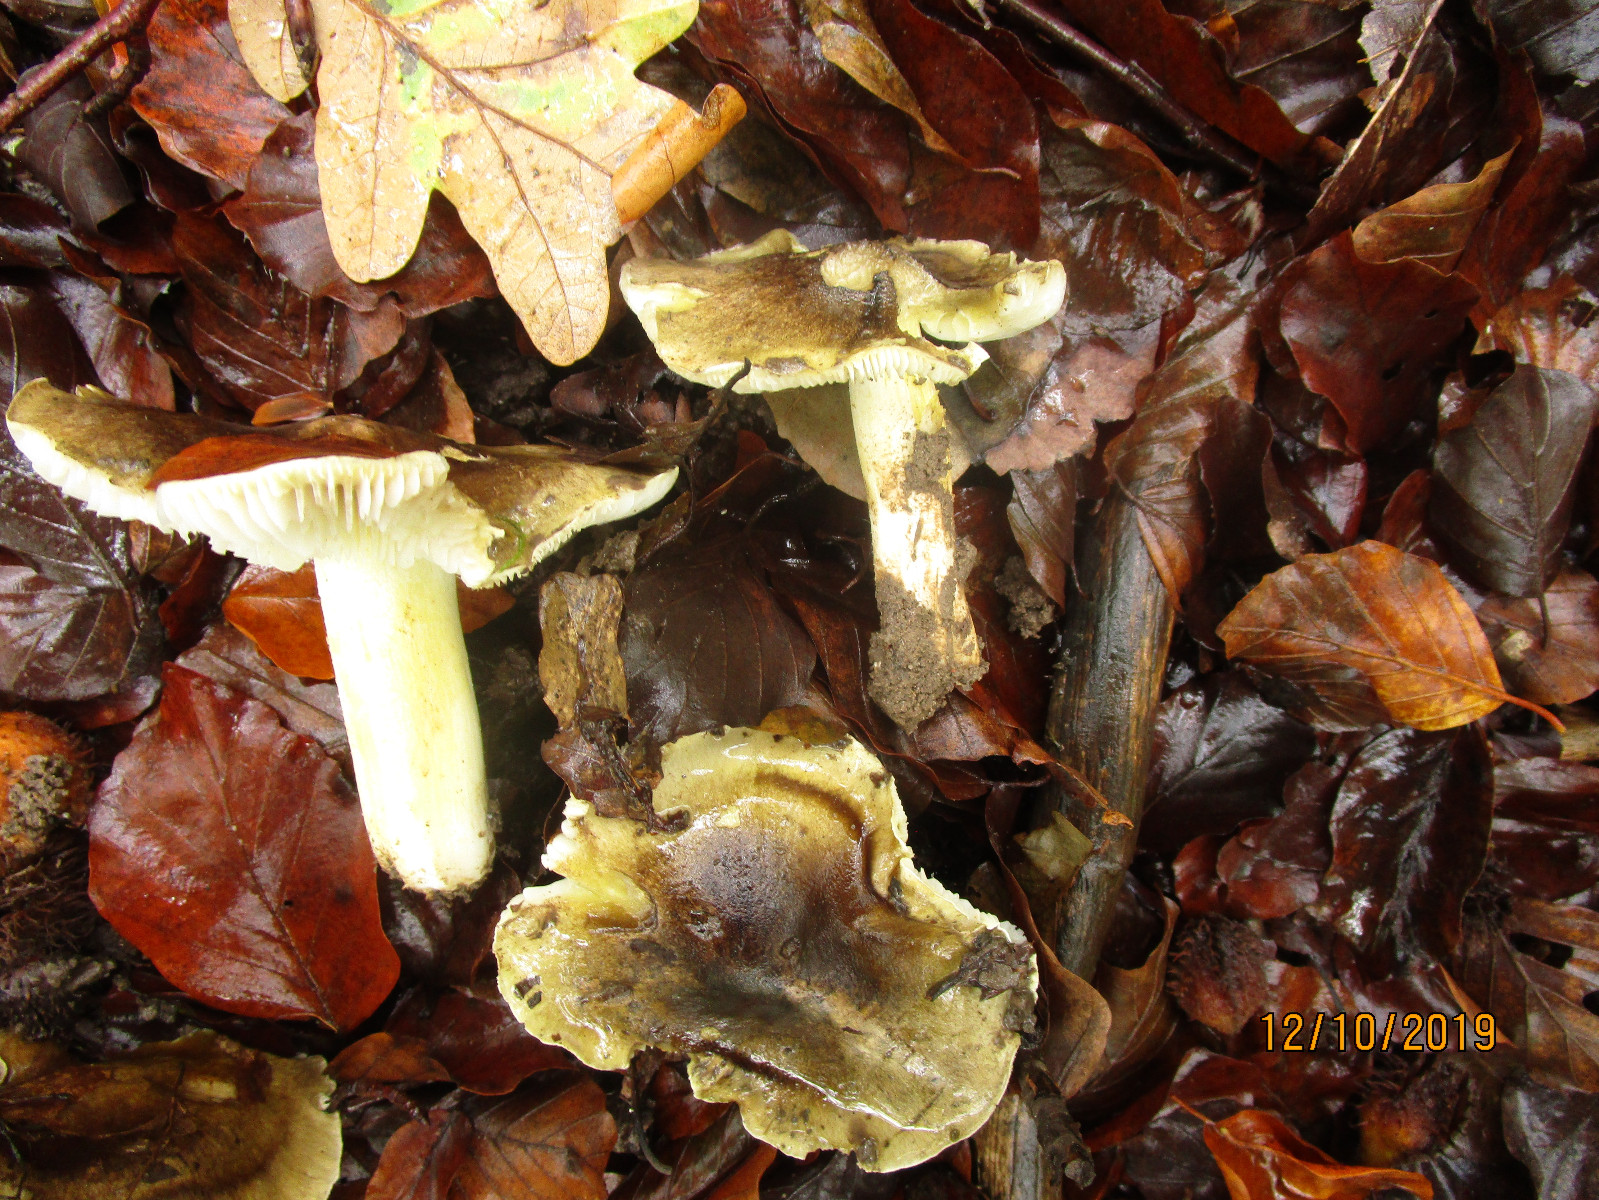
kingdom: Fungi
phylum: Basidiomycota
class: Agaricomycetes
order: Agaricales
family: Tricholomataceae
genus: Tricholoma
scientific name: Tricholoma sejunctum
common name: grøngul ridderhat
